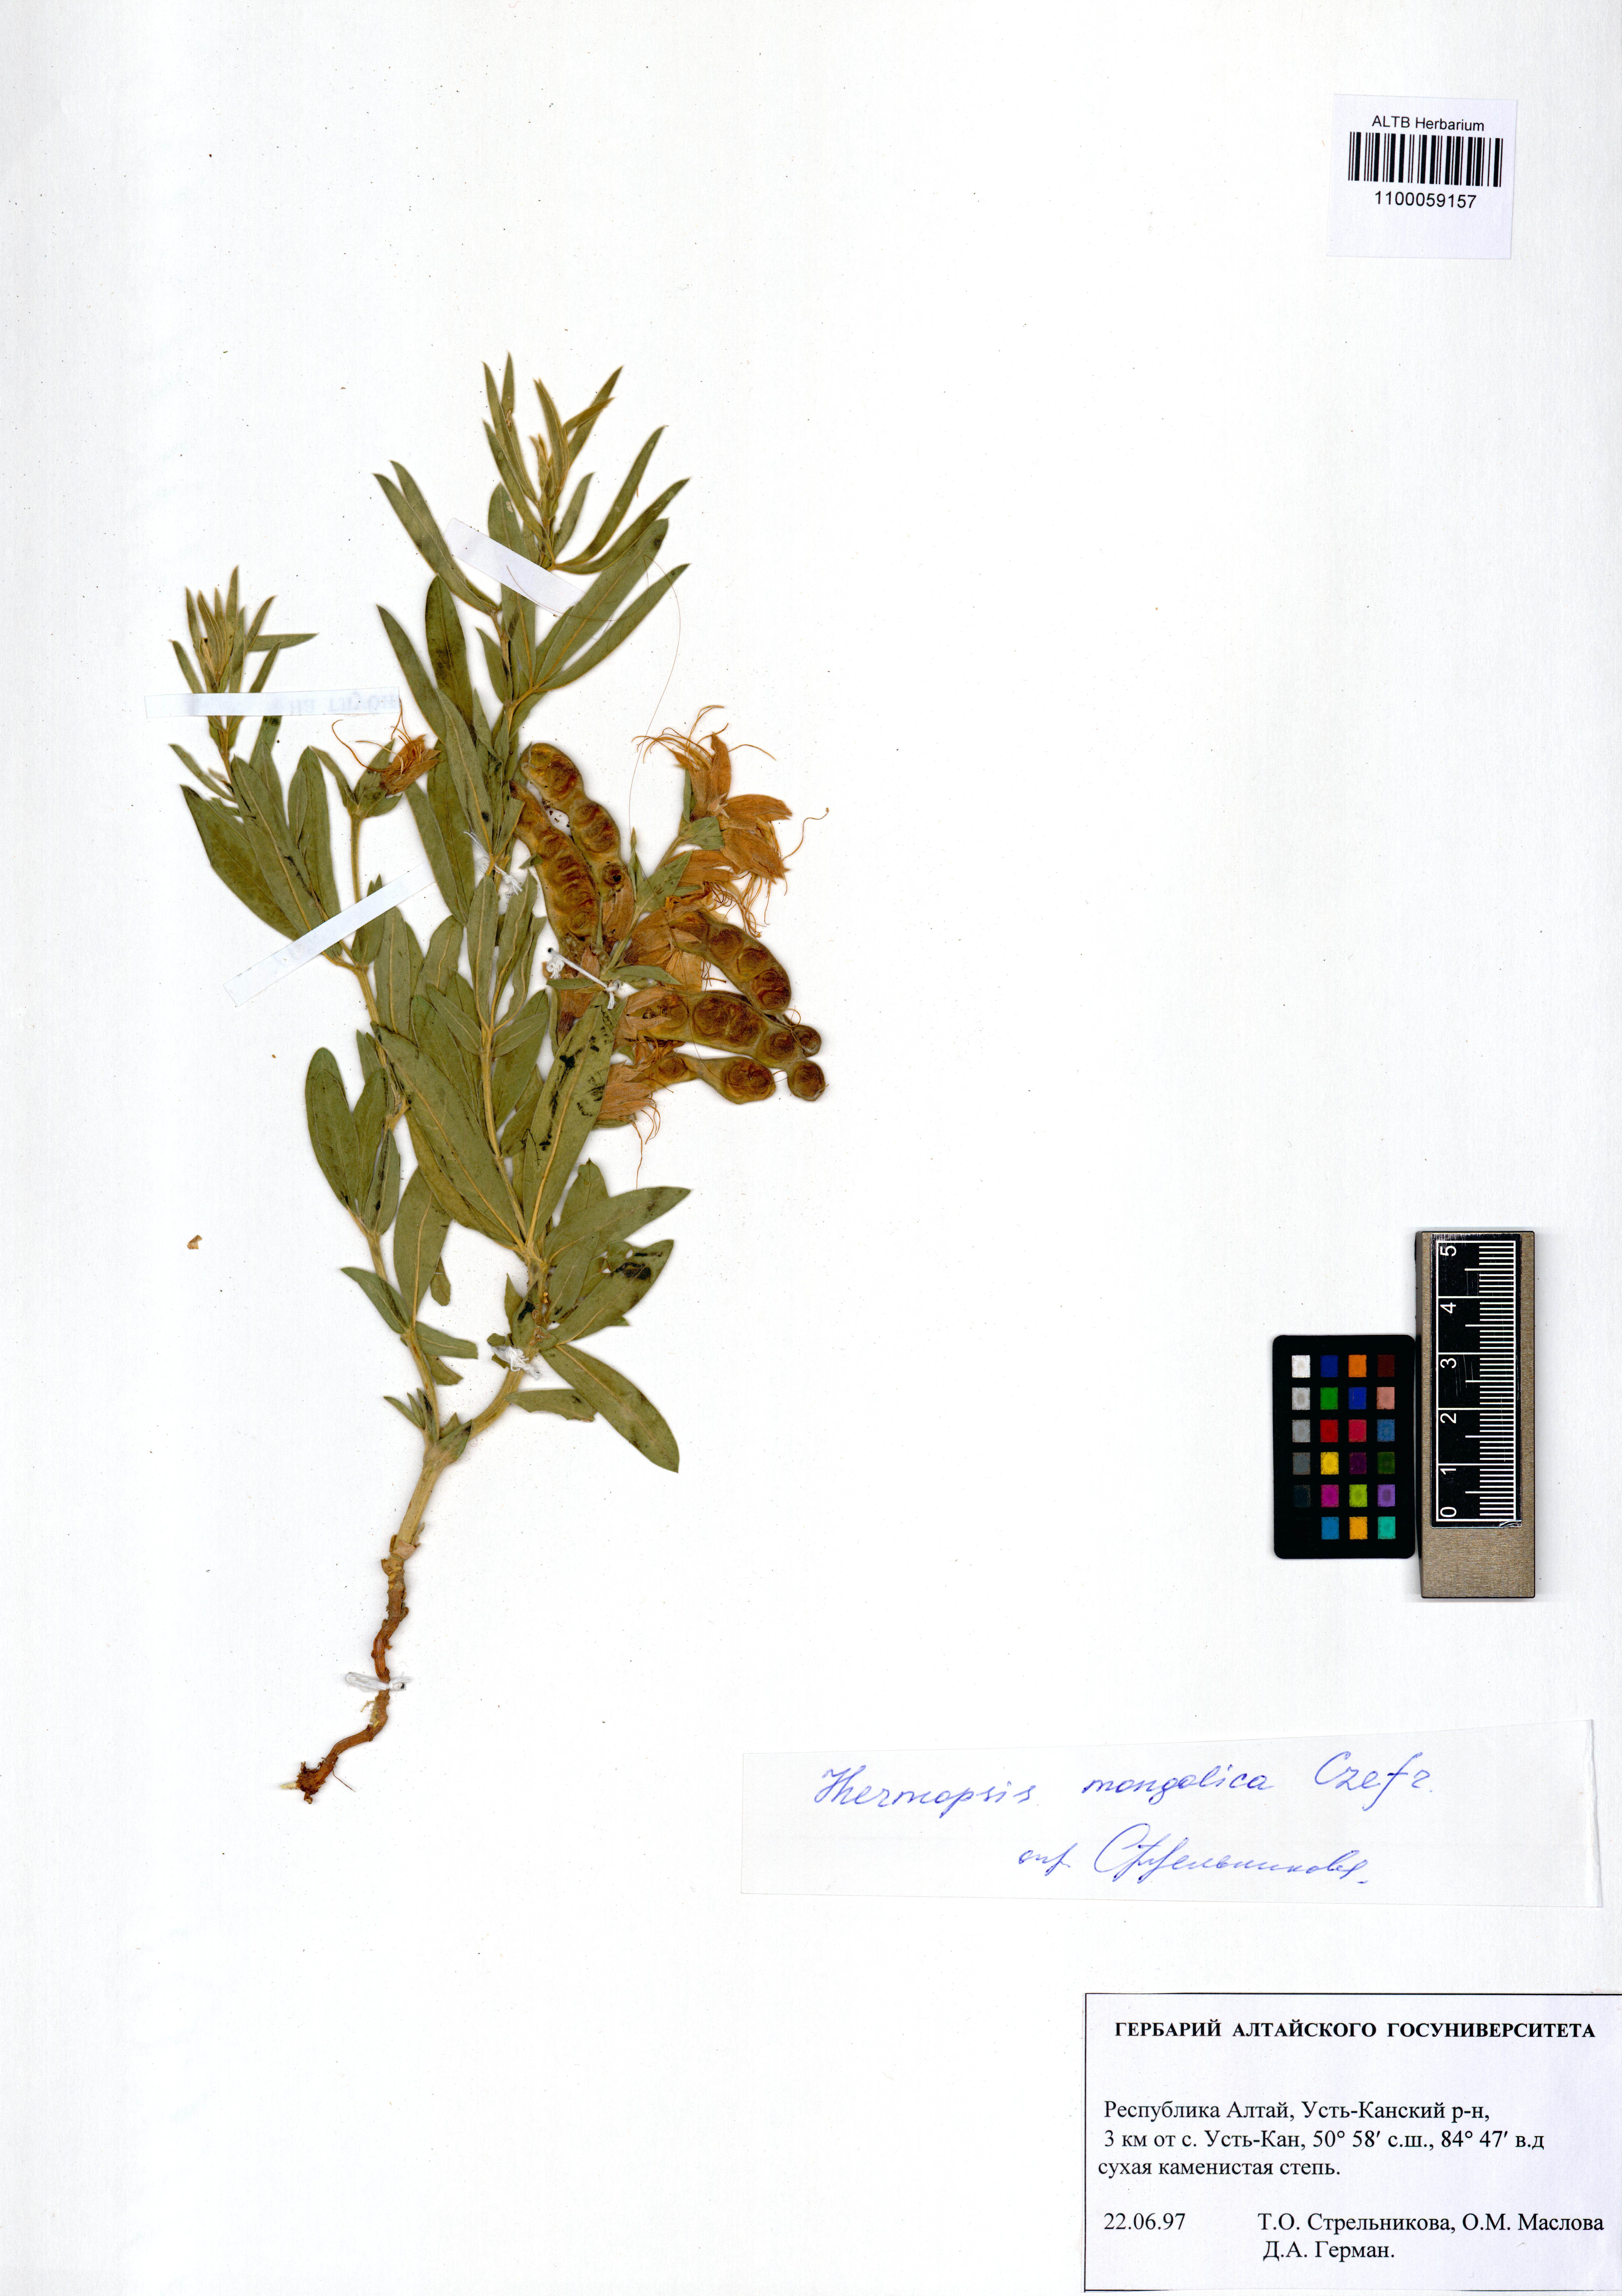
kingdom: Plantae
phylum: Tracheophyta
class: Magnoliopsida
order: Fabales
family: Fabaceae
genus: Thermopsis
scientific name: Thermopsis mongolica
